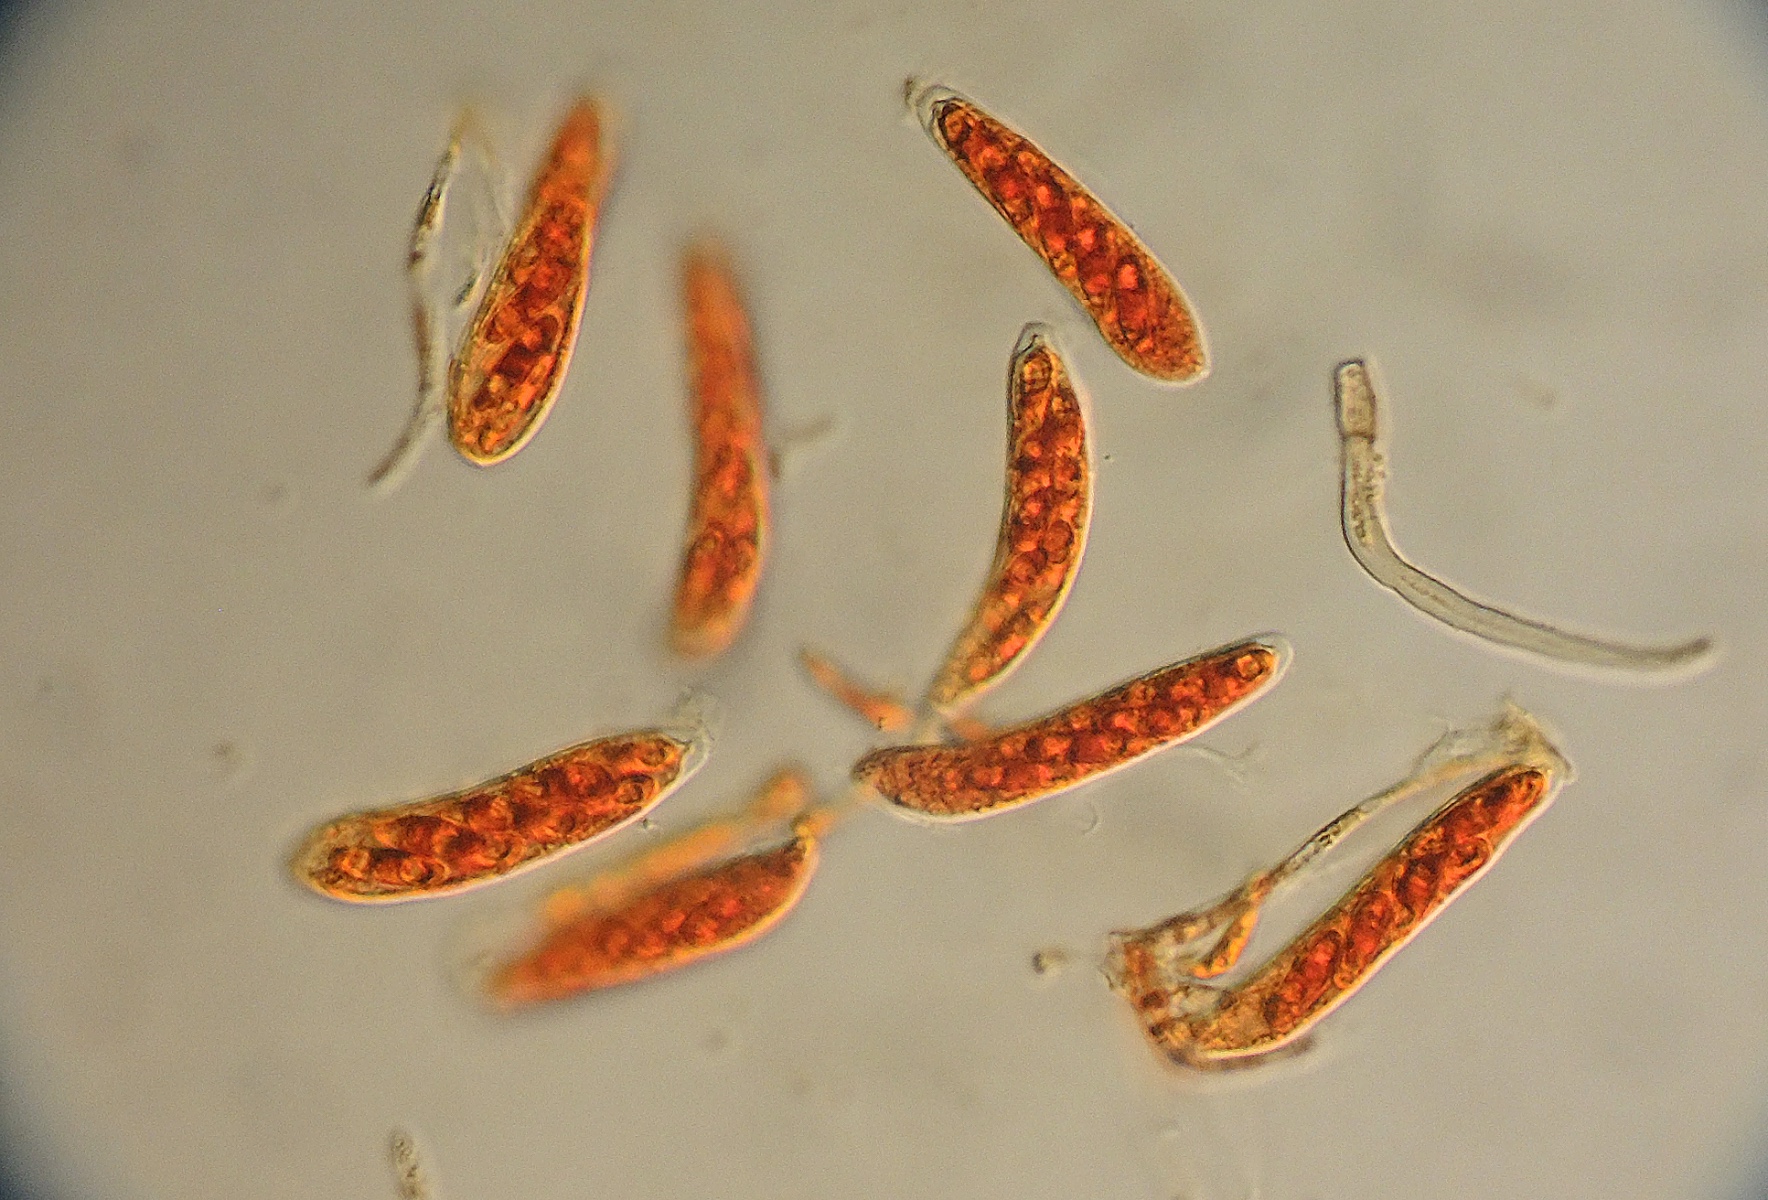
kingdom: Fungi
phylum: Ascomycota
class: Leotiomycetes
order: Helotiales
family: Hyaloscyphaceae
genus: Unguicularia
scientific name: Unguicularia
